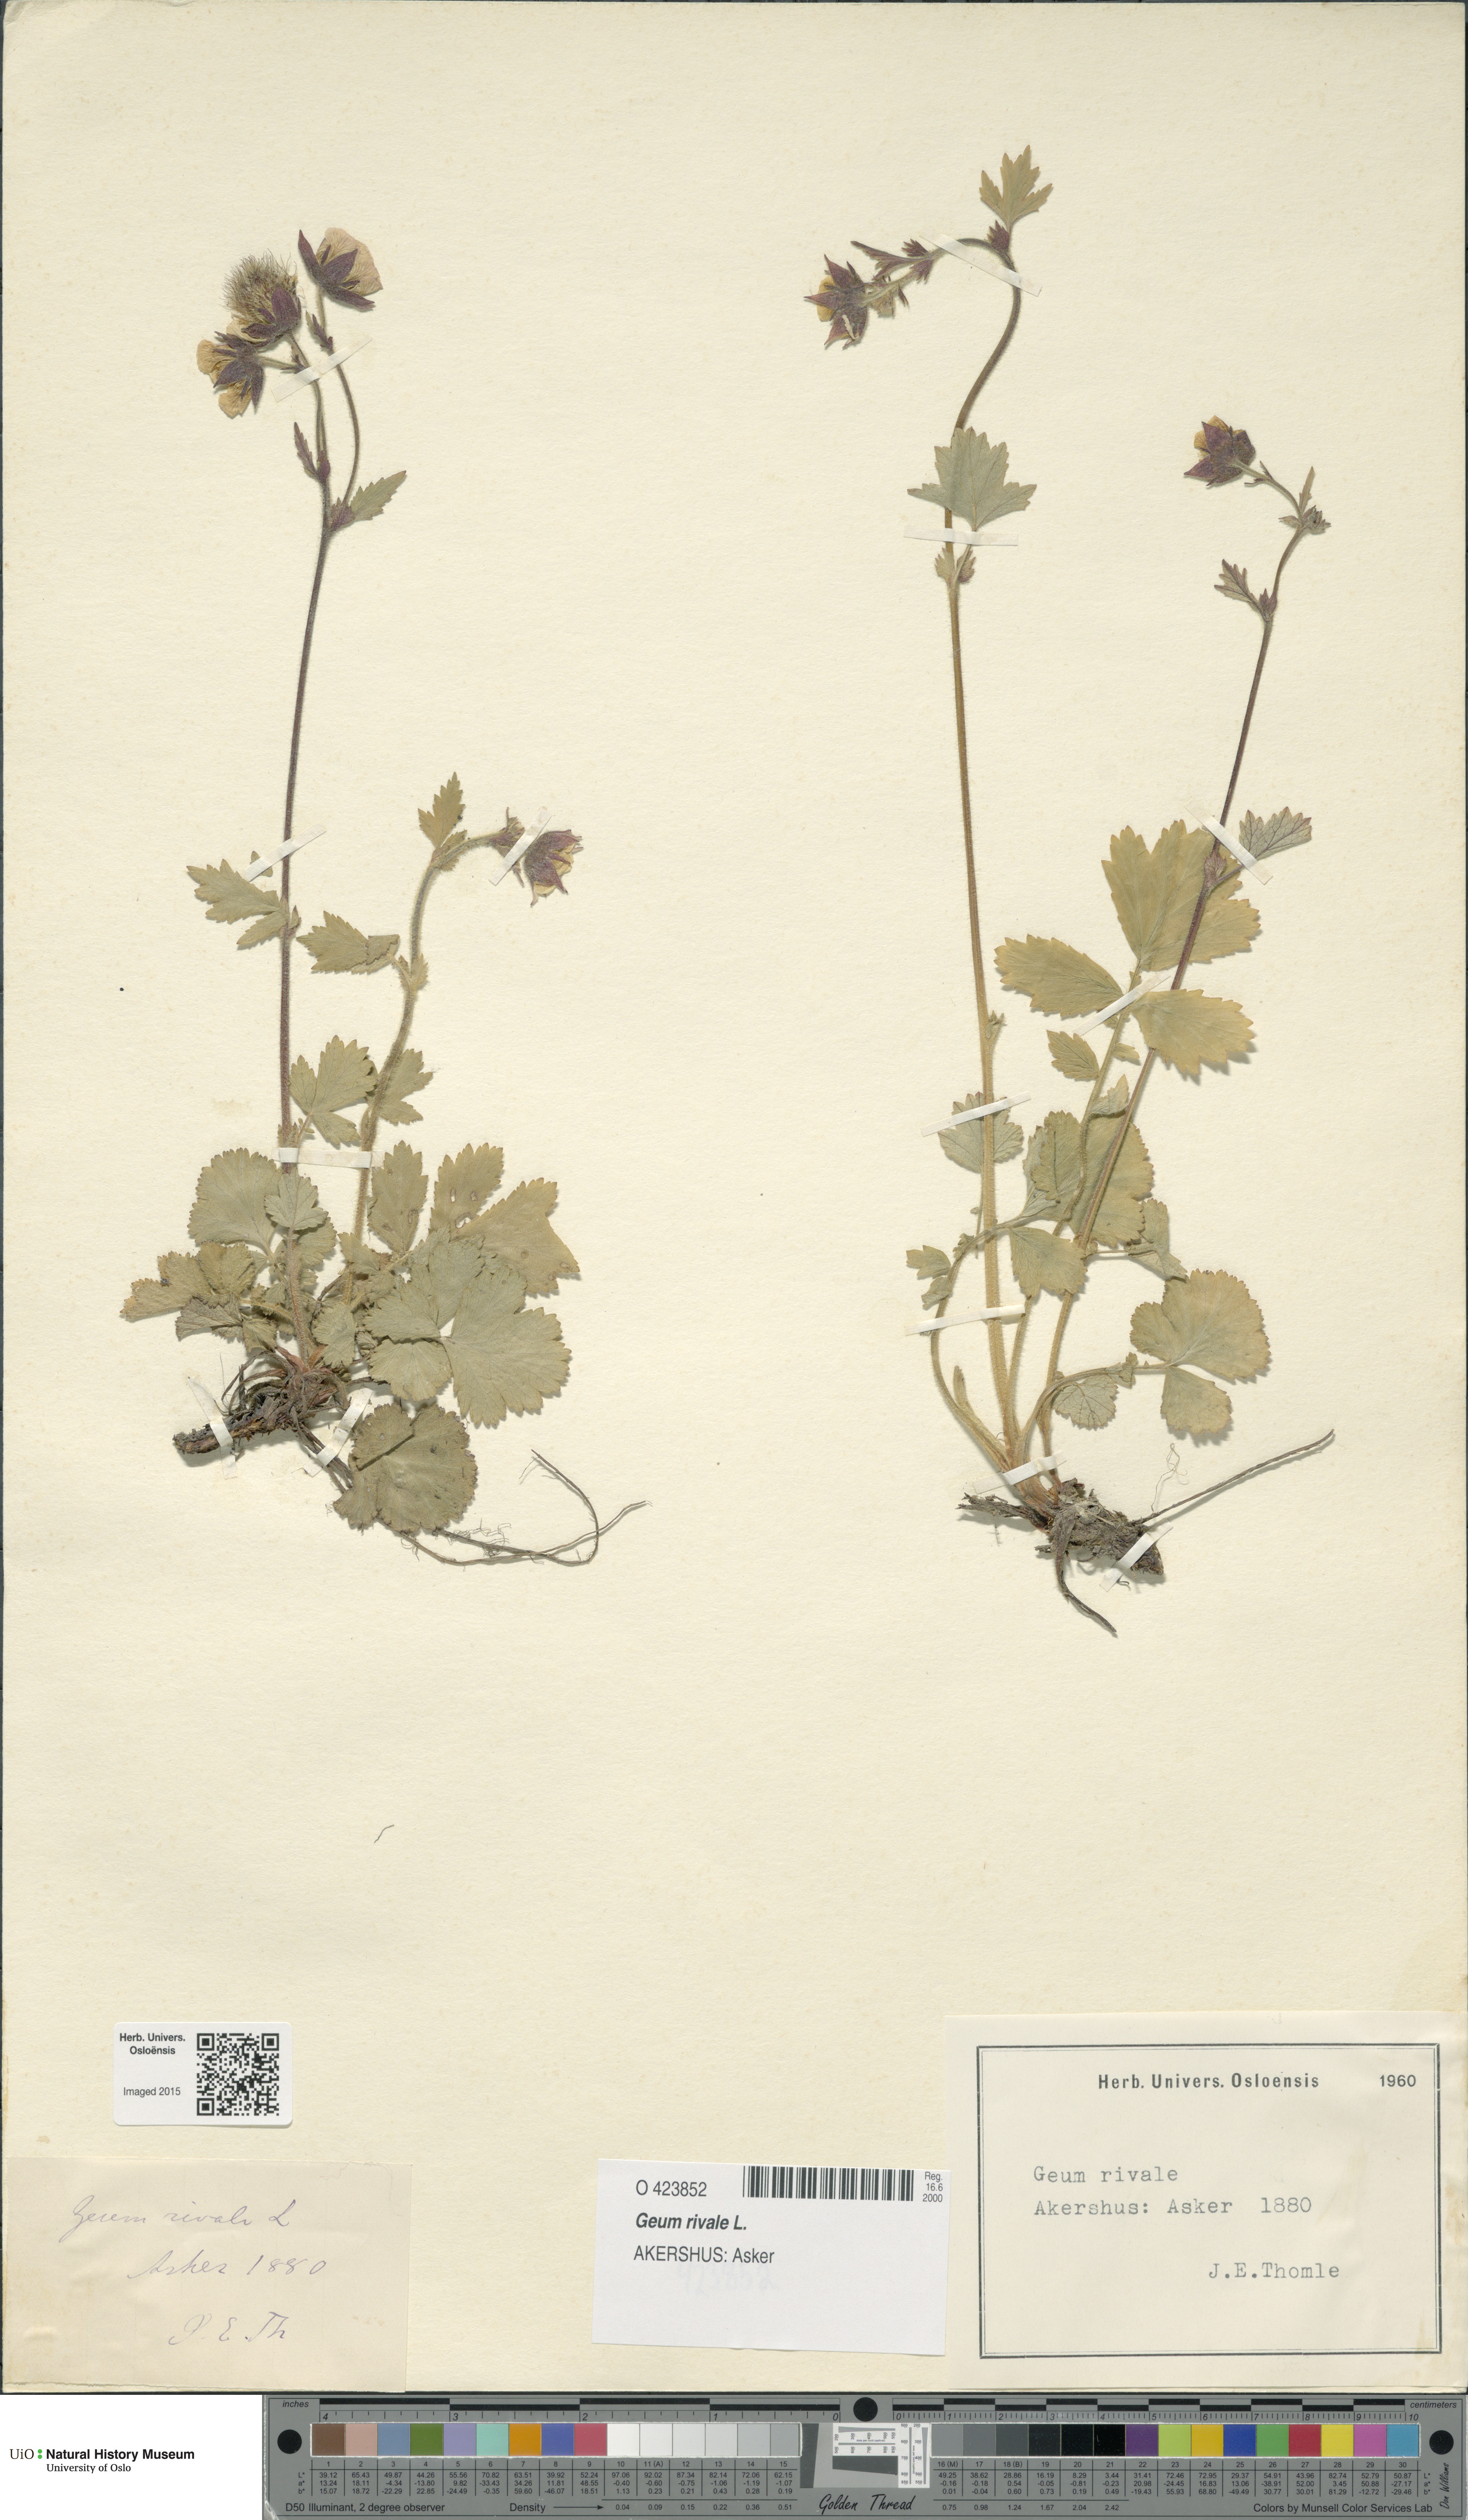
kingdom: Plantae
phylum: Tracheophyta
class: Magnoliopsida
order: Rosales
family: Rosaceae
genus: Geum
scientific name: Geum rivale
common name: Water avens
